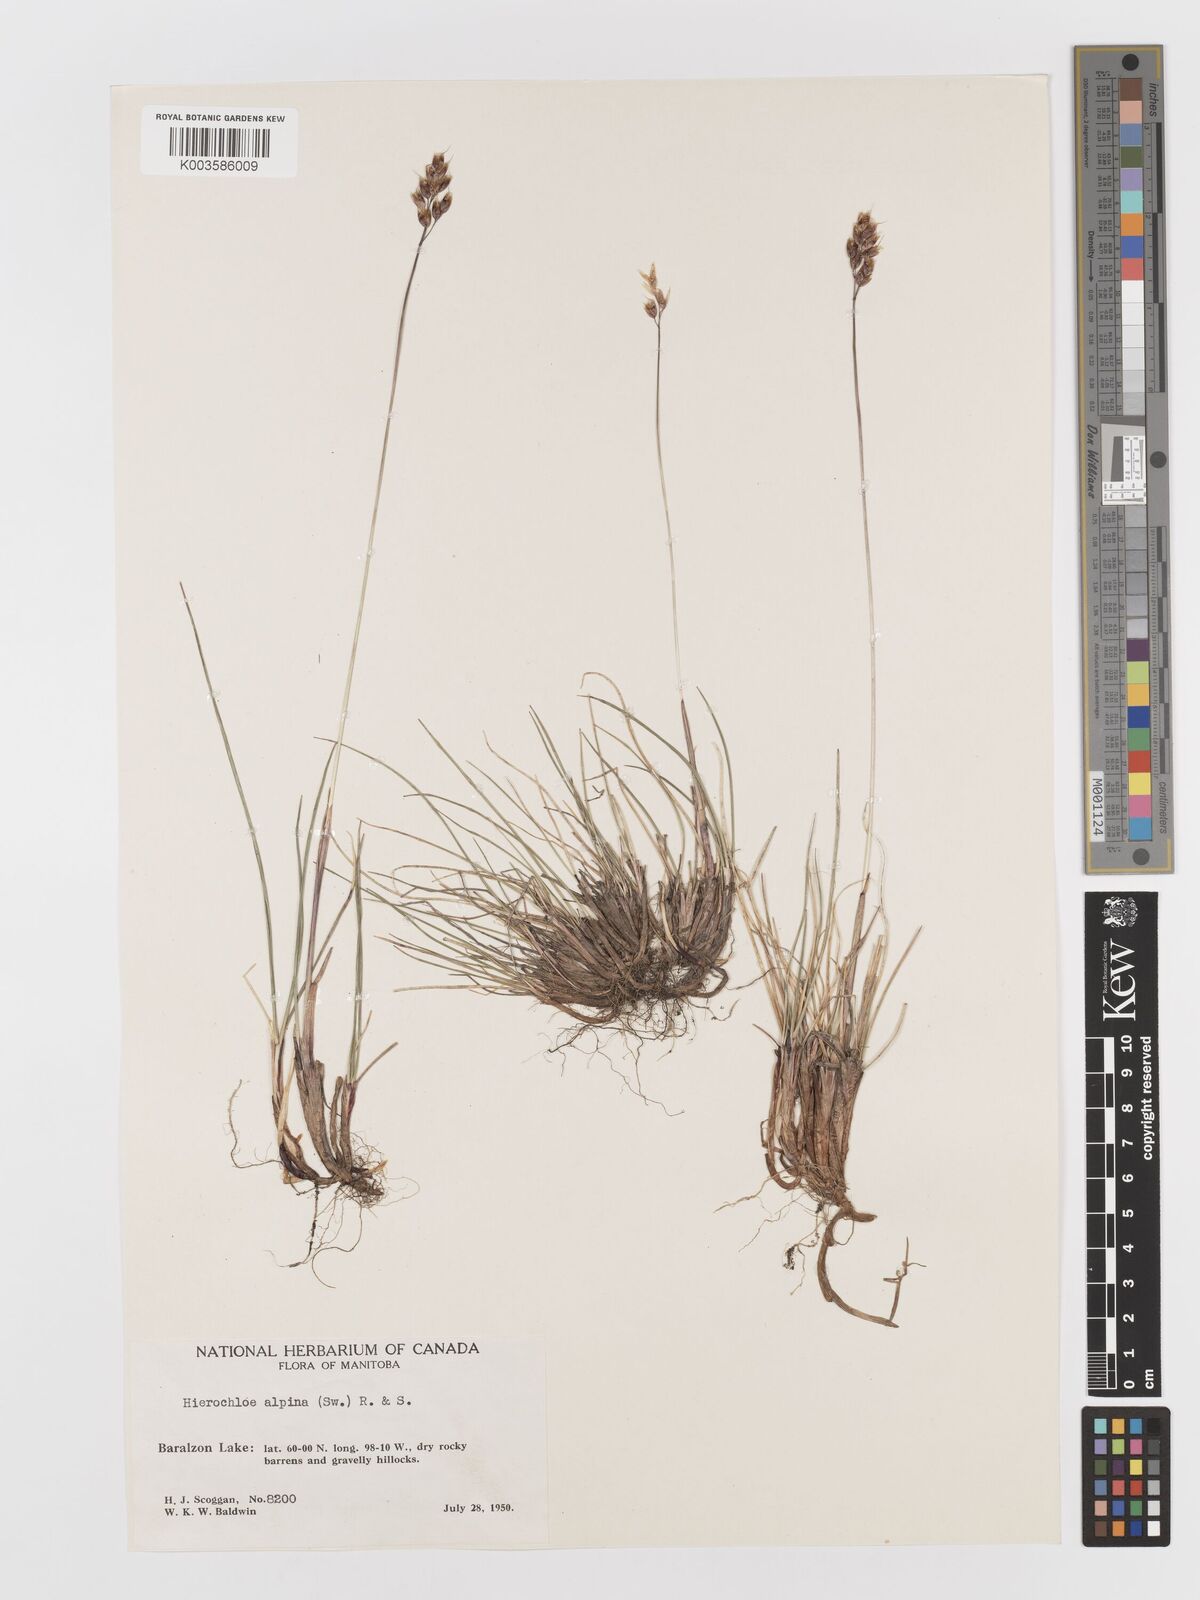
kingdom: Plantae
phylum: Tracheophyta
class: Liliopsida
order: Poales
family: Poaceae
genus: Anthoxanthum
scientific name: Anthoxanthum monticola
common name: Alpine sweetgrass
